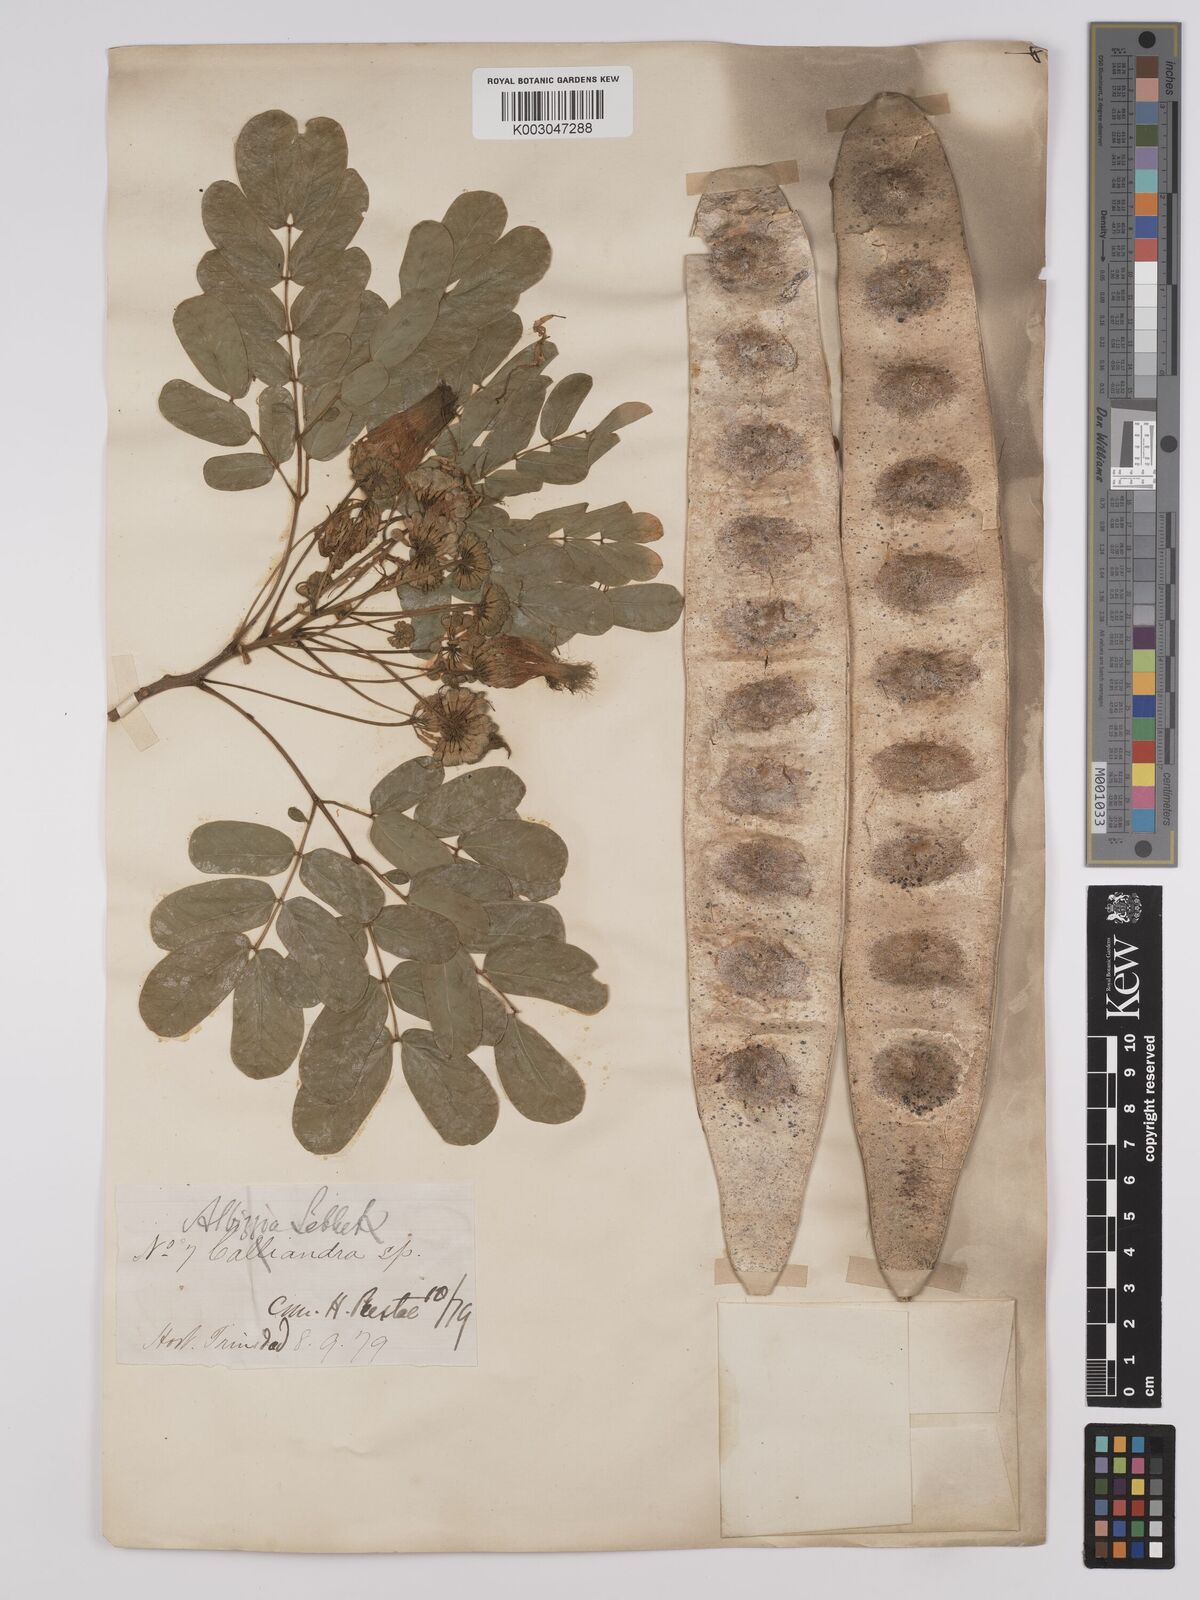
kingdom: Plantae
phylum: Tracheophyta
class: Magnoliopsida
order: Fabales
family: Fabaceae
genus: Albizia
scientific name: Albizia lebbeck
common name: Woman's tongue
